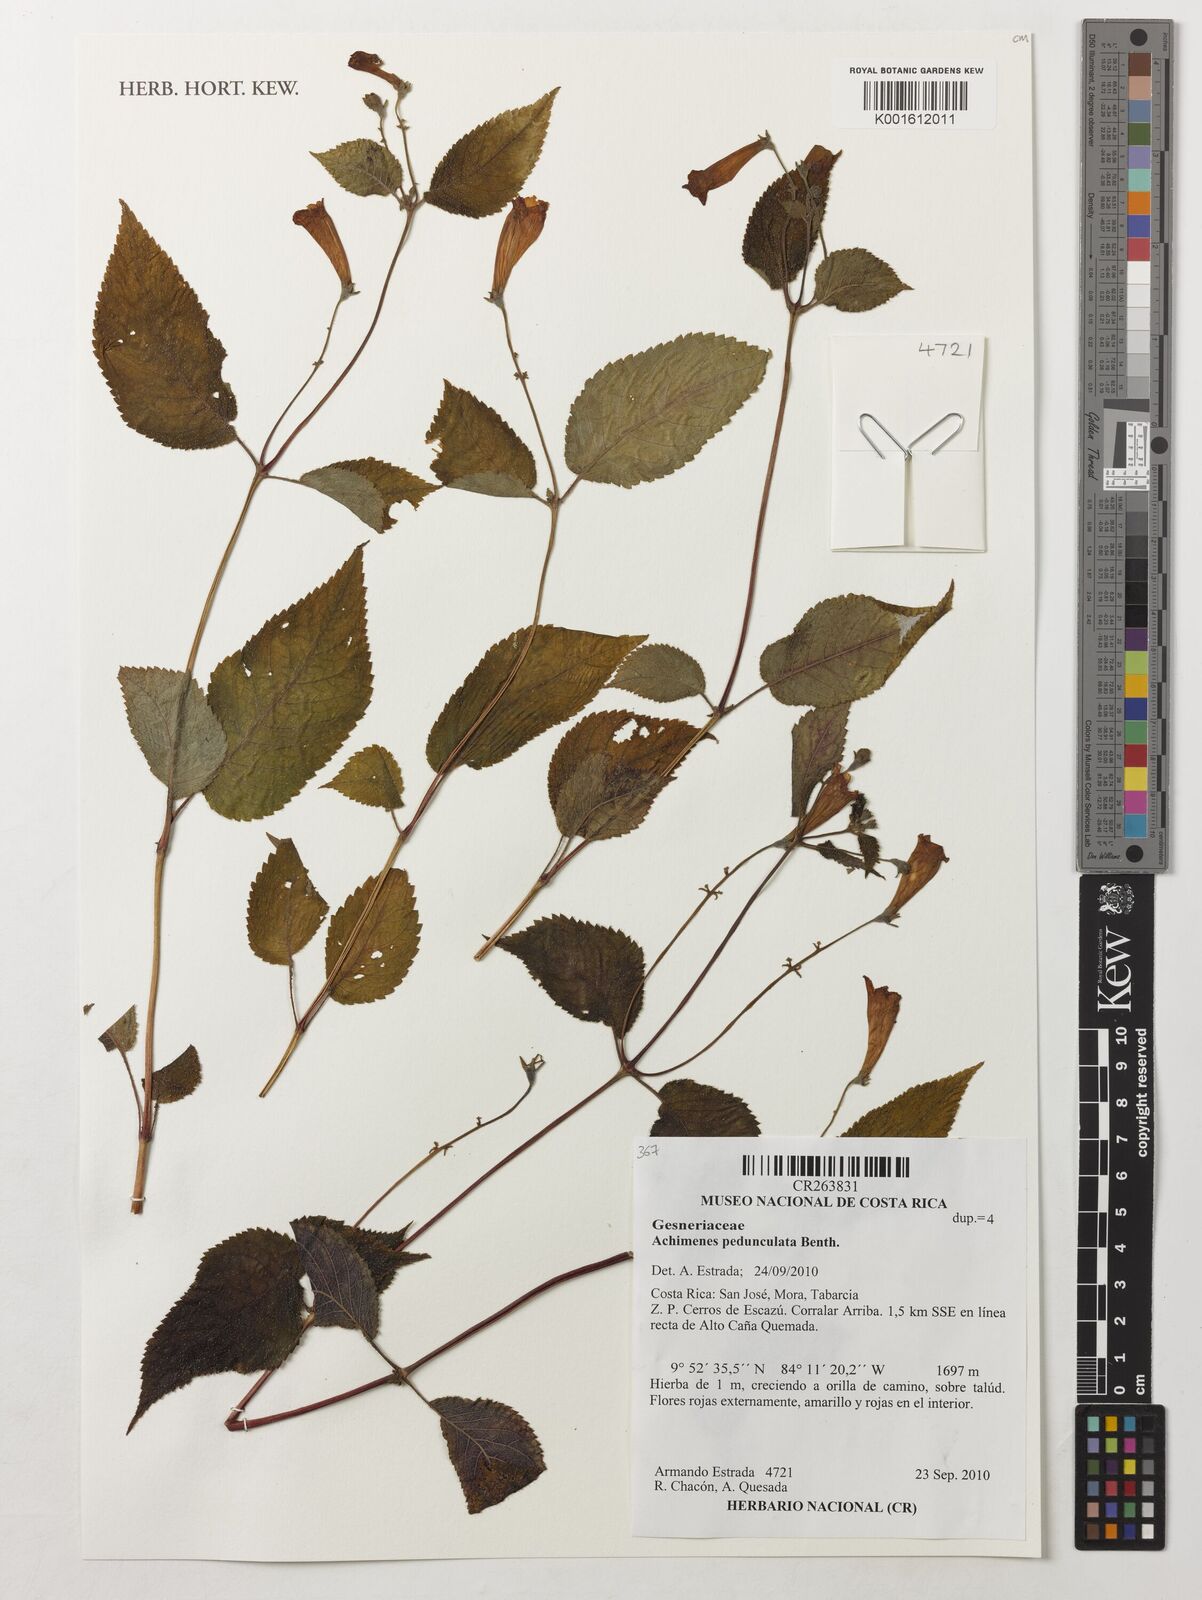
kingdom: Plantae
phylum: Tracheophyta
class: Magnoliopsida
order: Lamiales
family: Gesneriaceae
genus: Achimenes
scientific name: Achimenes pedunculata
